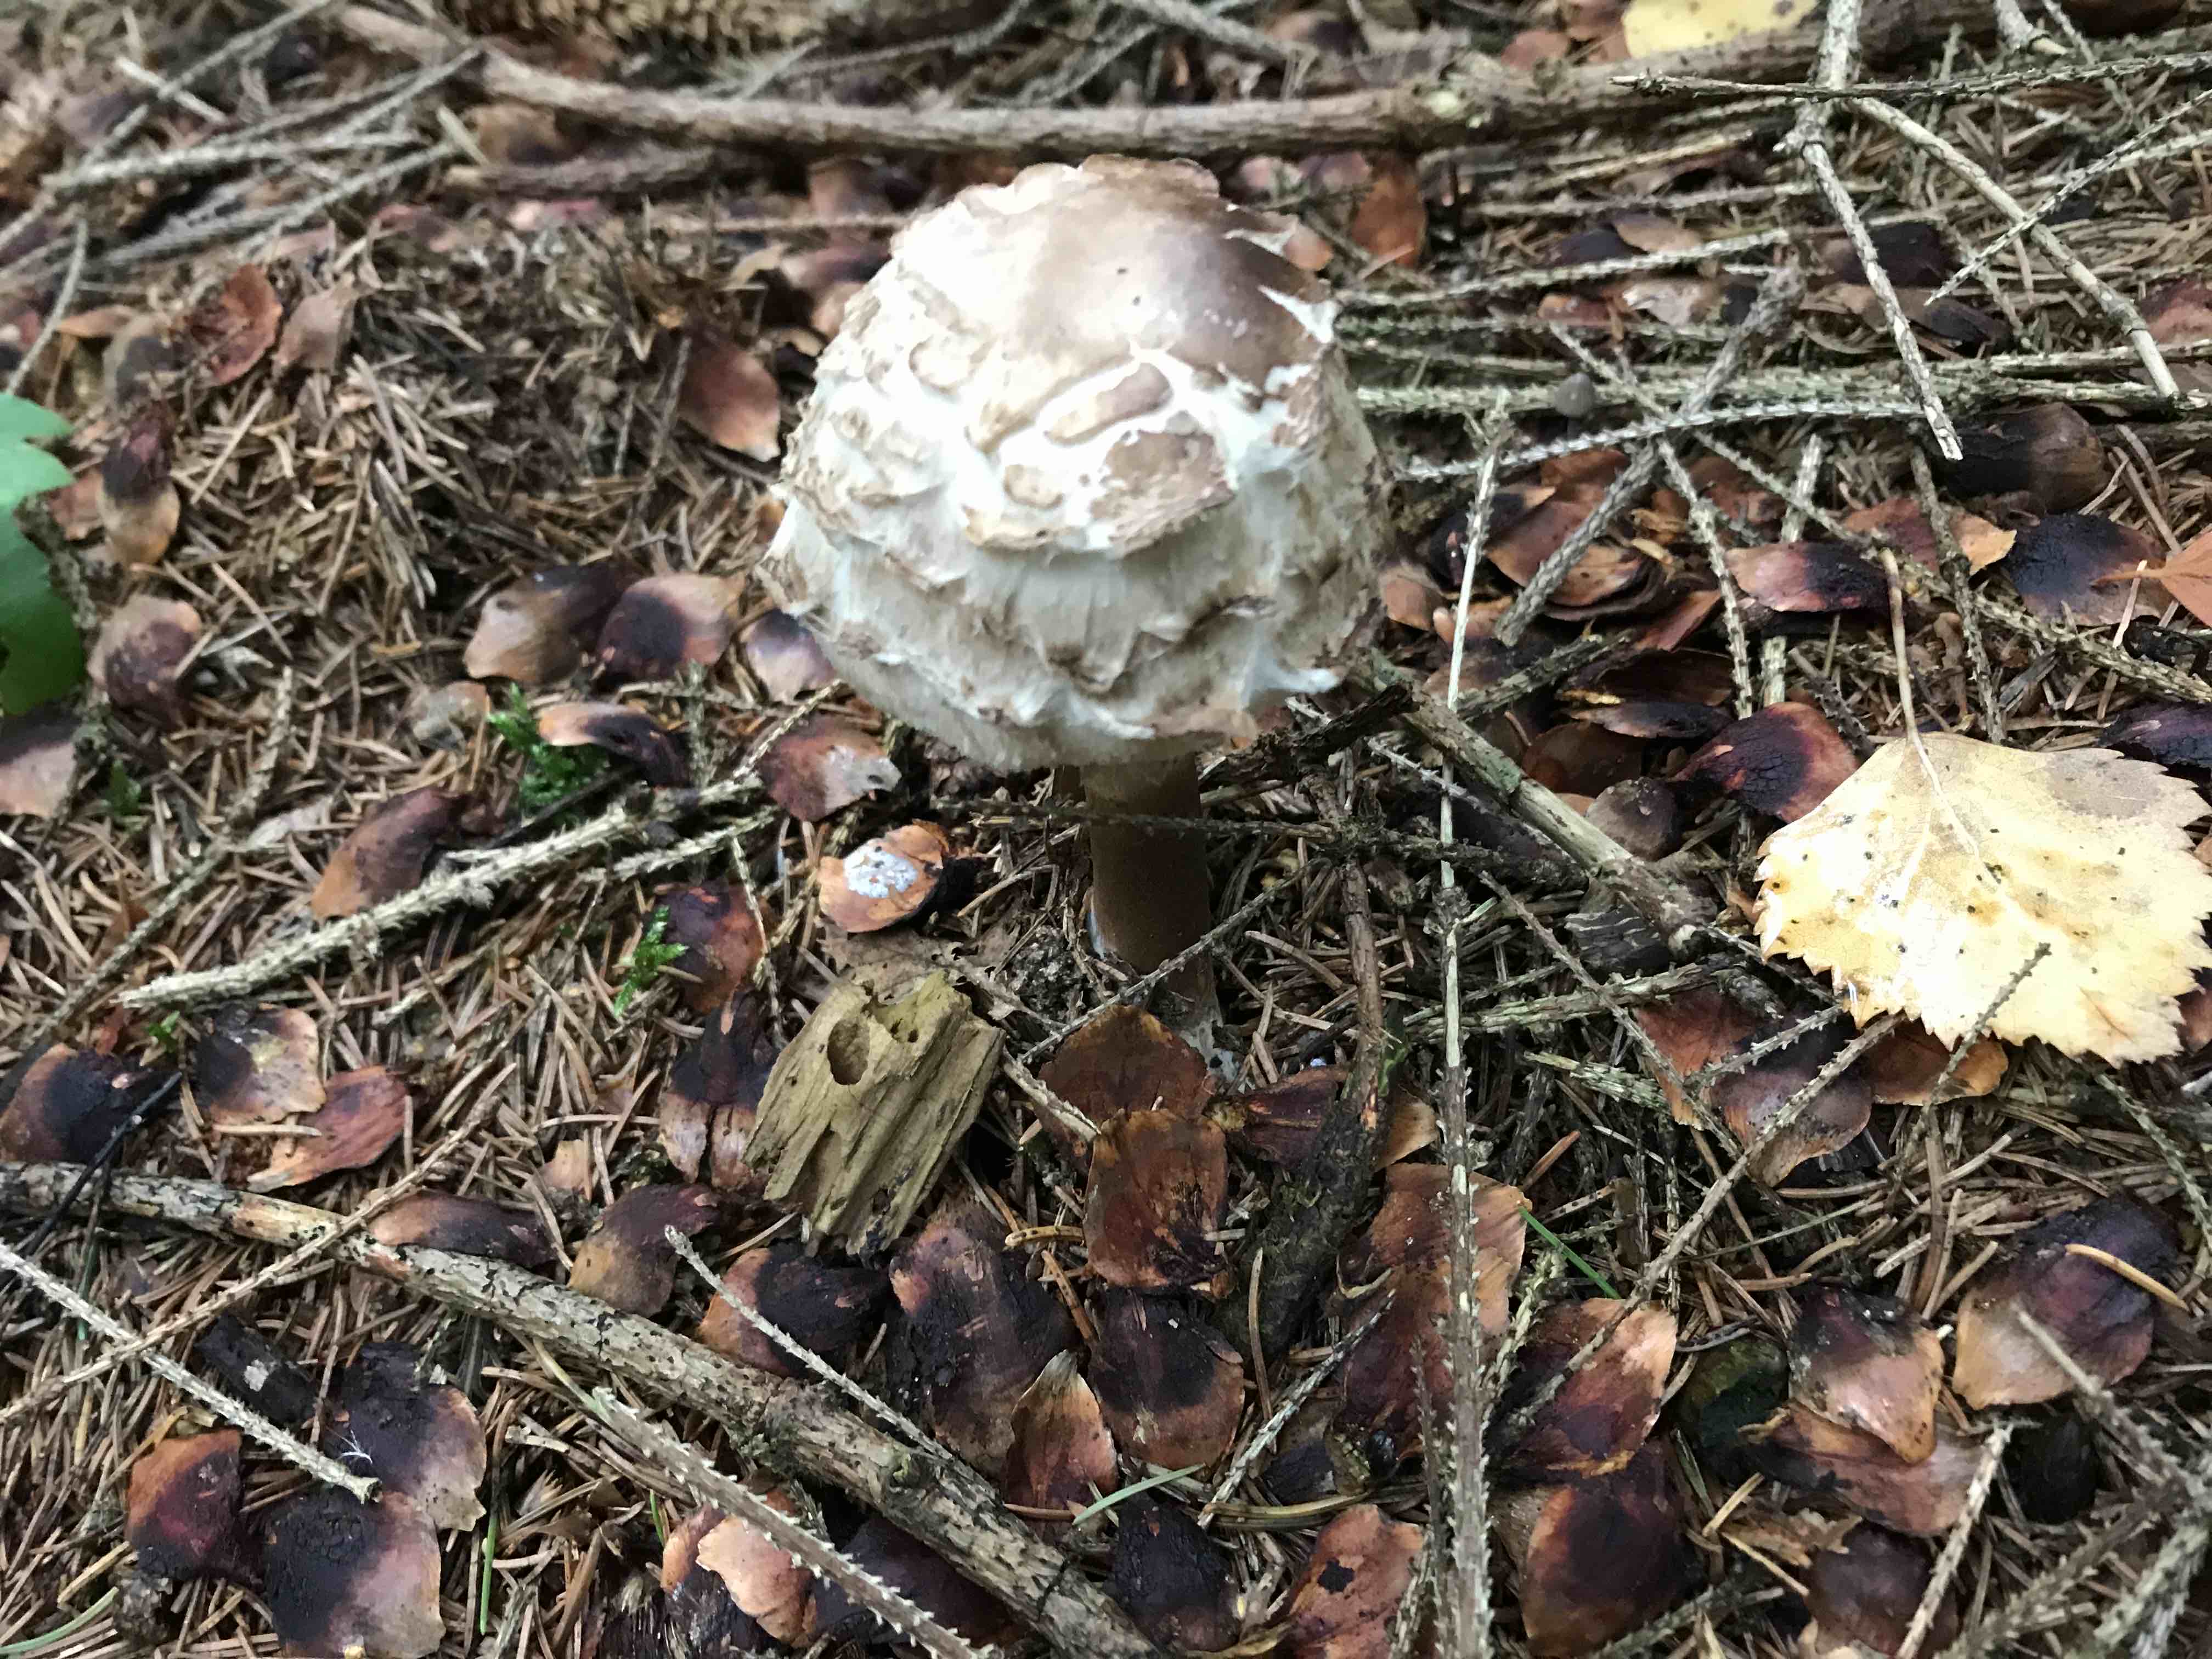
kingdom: Fungi
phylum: Basidiomycota
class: Agaricomycetes
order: Agaricales
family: Agaricaceae
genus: Chlorophyllum
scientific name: Chlorophyllum olivieri
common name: almindelig rabarberhat
